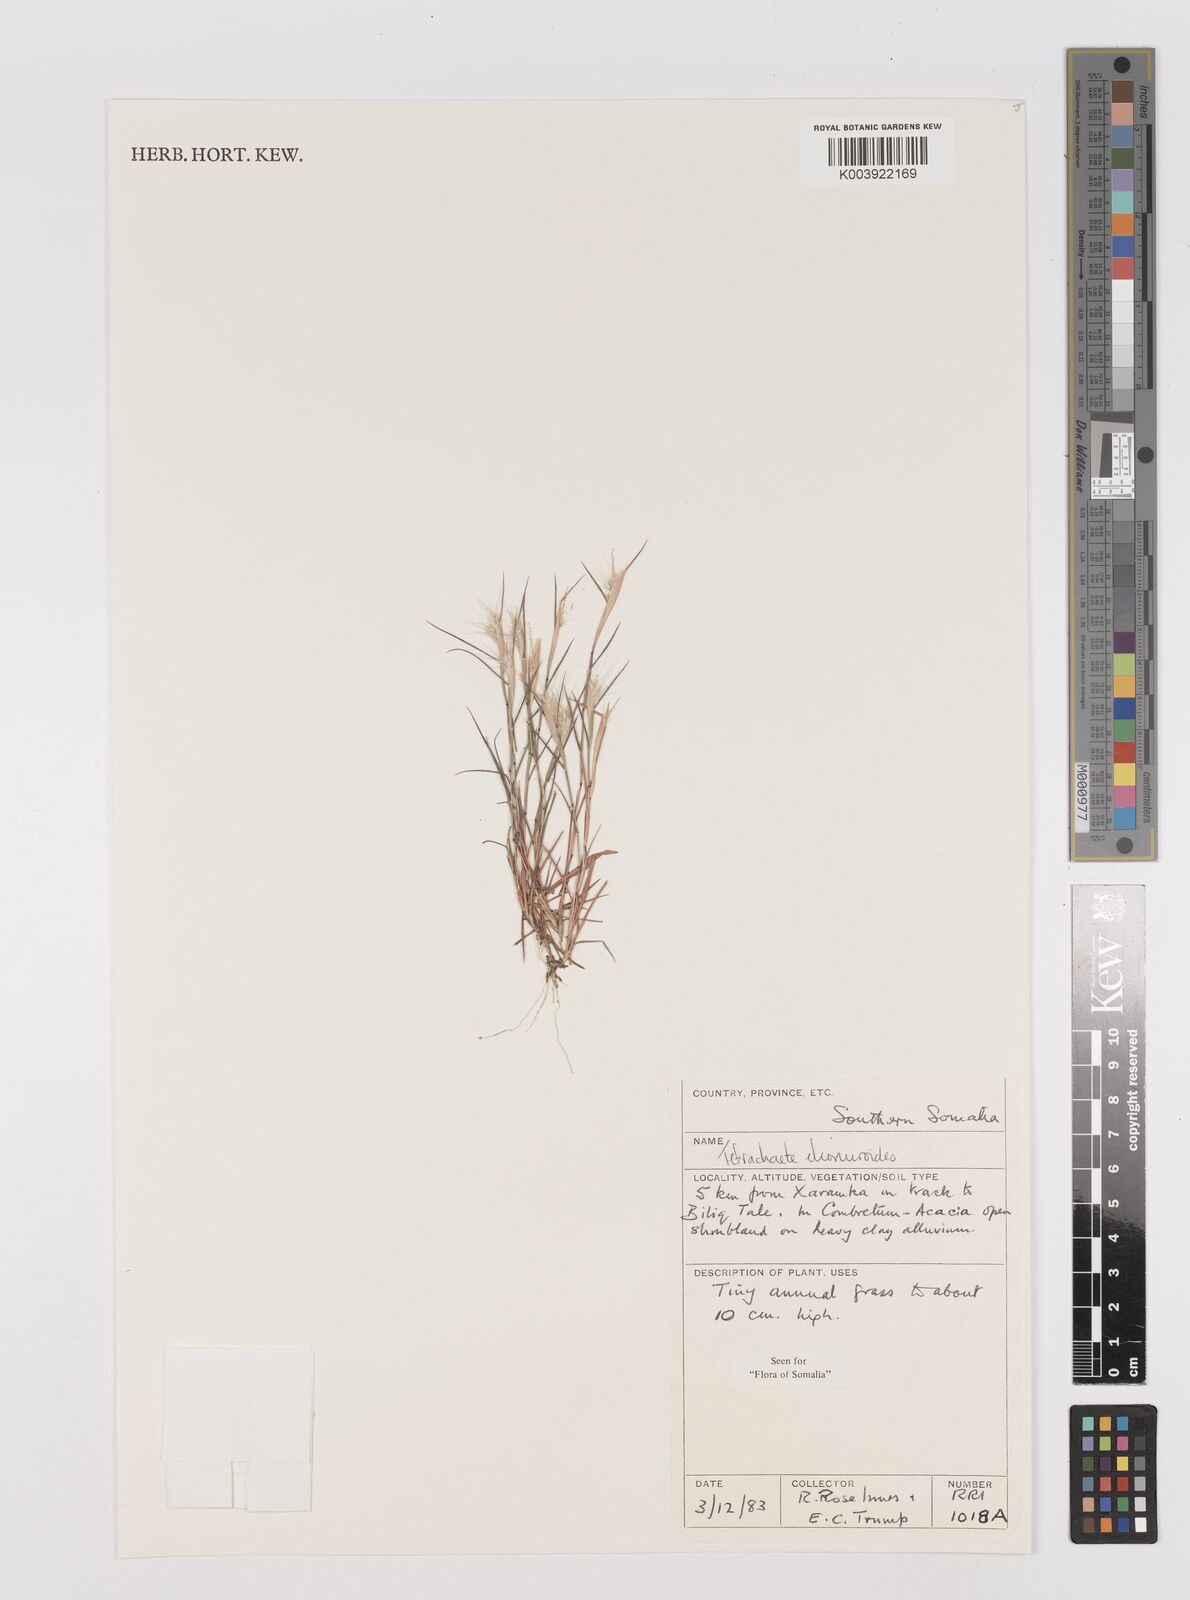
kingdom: Plantae
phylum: Tracheophyta
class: Liliopsida
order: Poales
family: Poaceae
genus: Tetrachaete
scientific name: Tetrachaete elionuroides
